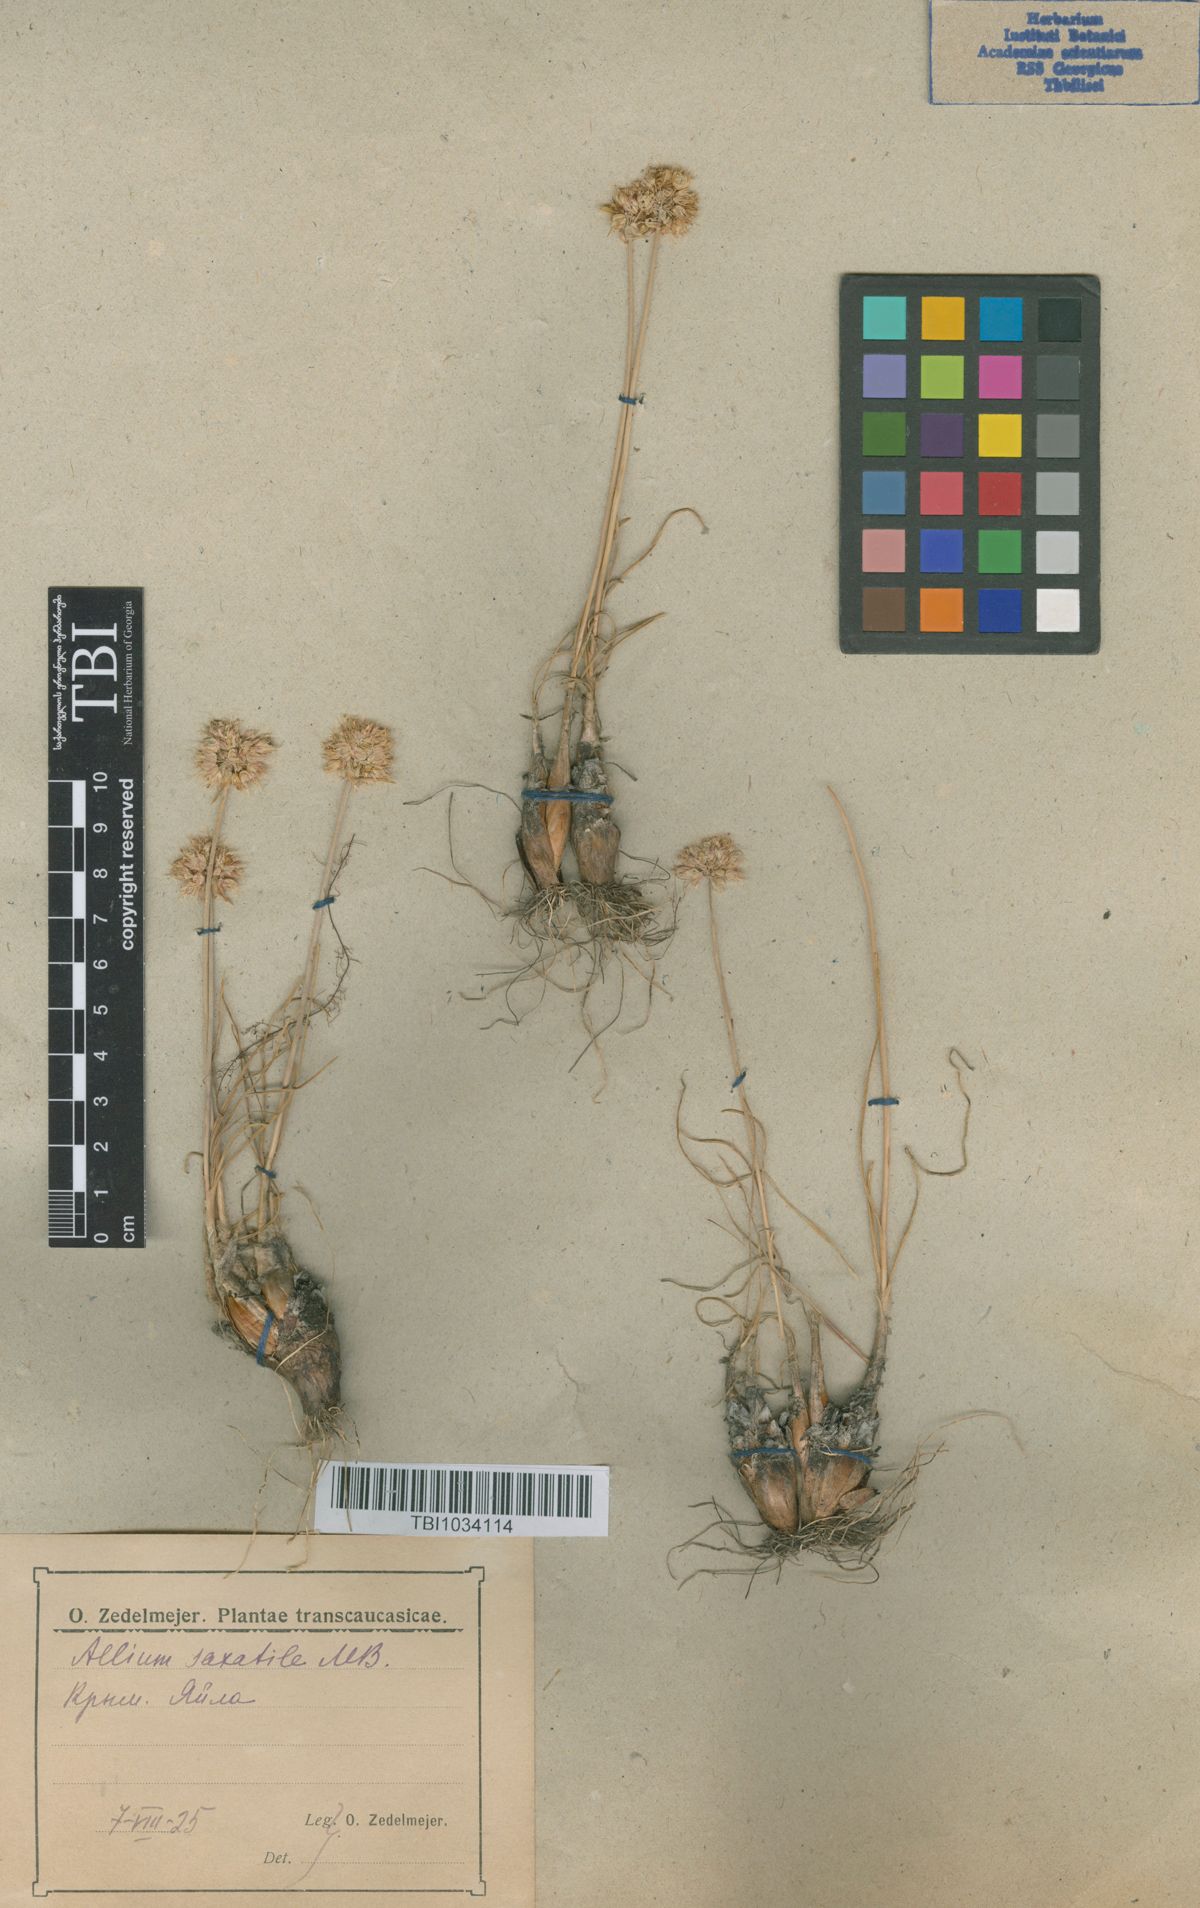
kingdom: Plantae
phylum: Tracheophyta
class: Liliopsida
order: Asparagales
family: Amaryllidaceae
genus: Allium
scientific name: Allium saxatile
